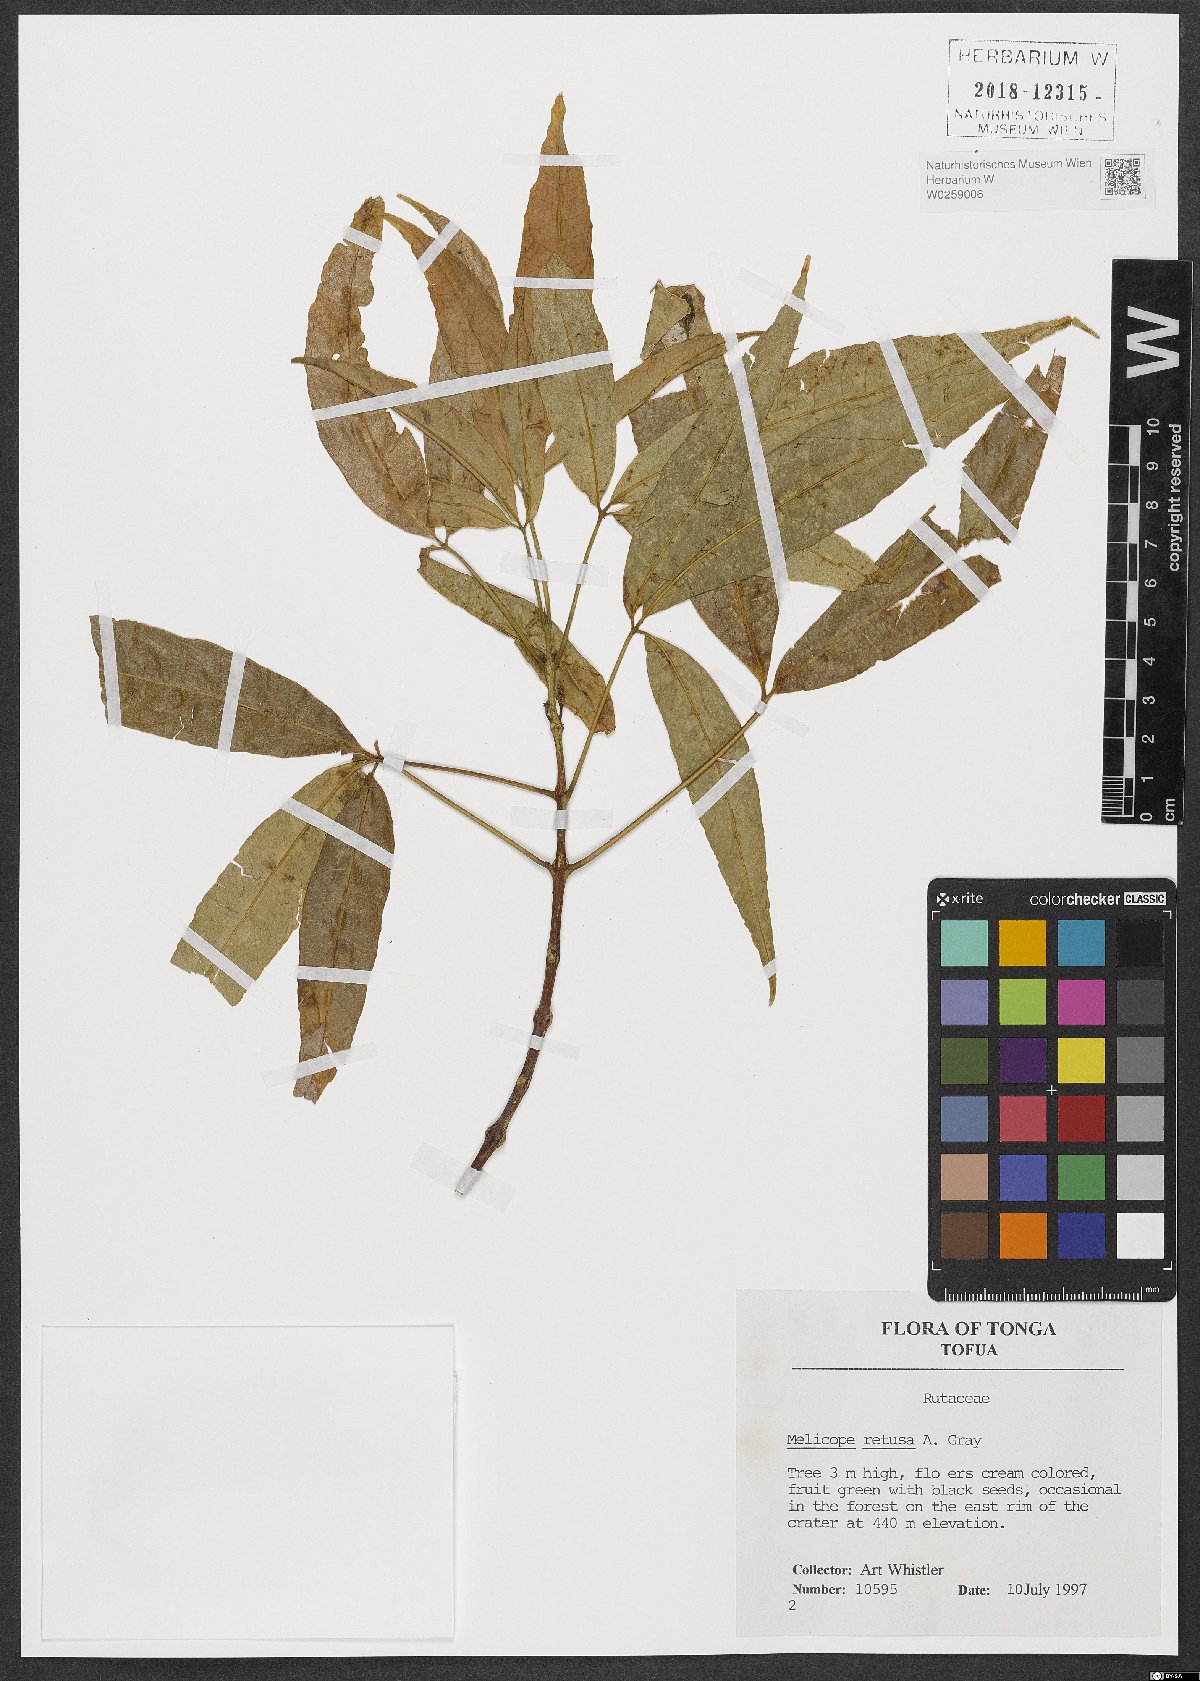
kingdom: Plantae
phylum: Tracheophyta
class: Magnoliopsida
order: Sapindales
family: Rutaceae
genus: Melicope
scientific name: Melicope retusa
